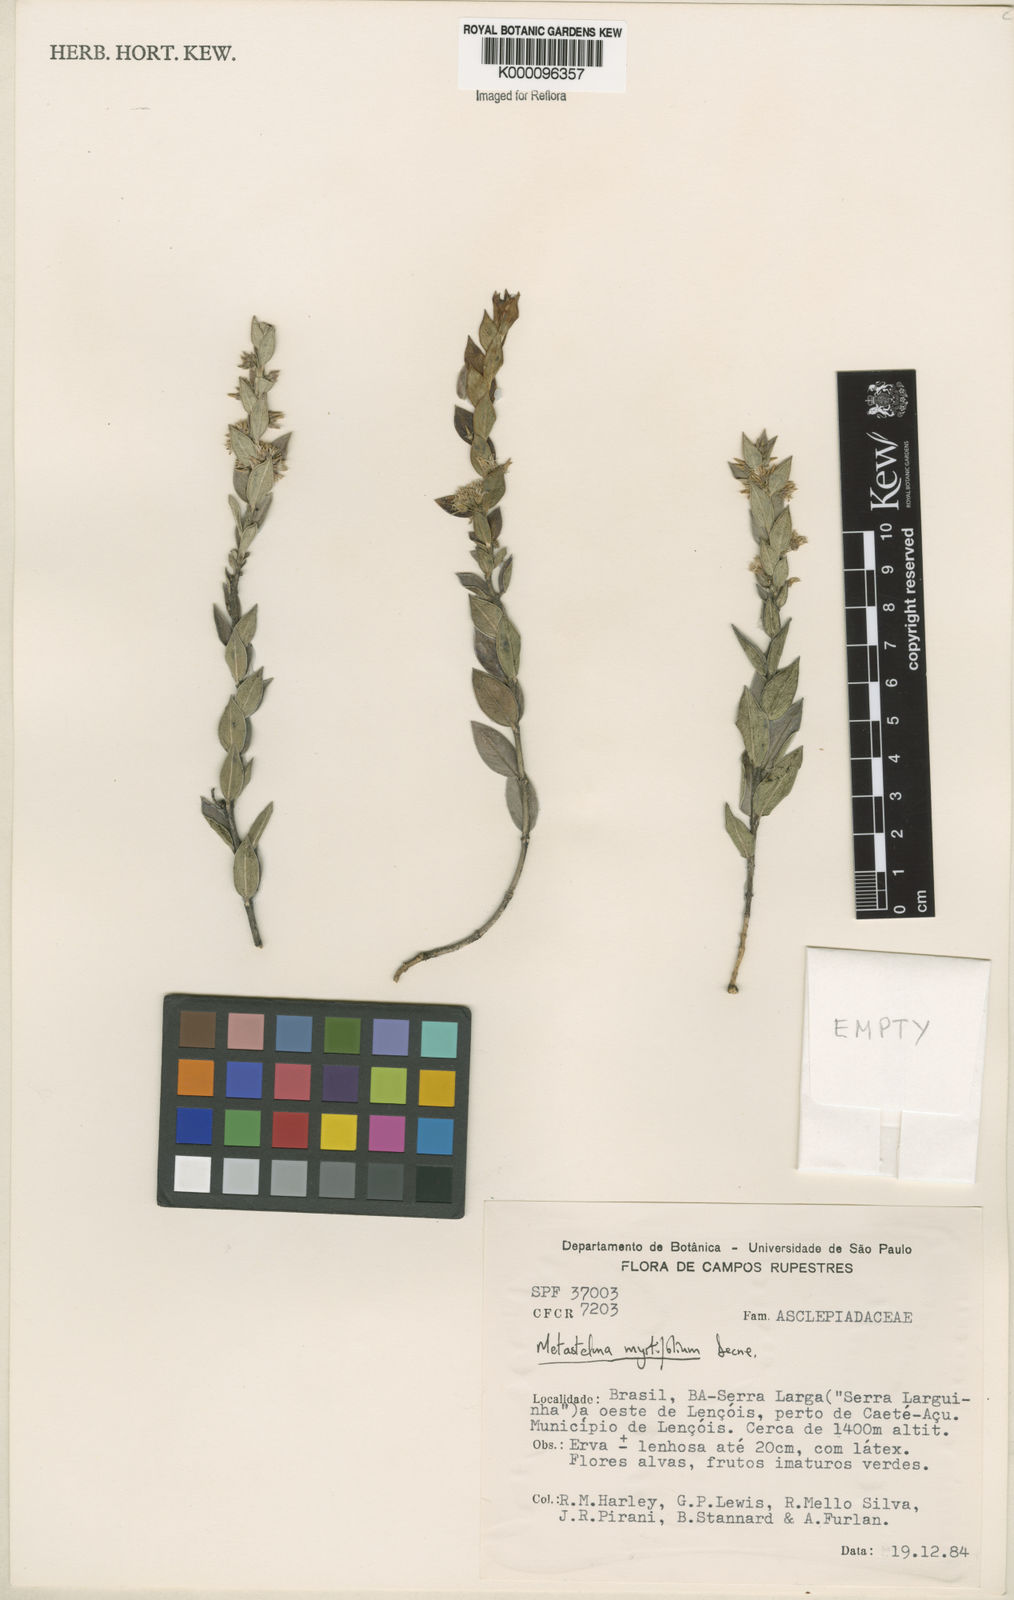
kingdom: Plantae
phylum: Tracheophyta
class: Magnoliopsida
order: Gentianales
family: Apocynaceae
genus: Metastelma
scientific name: Metastelma myrtifolium
